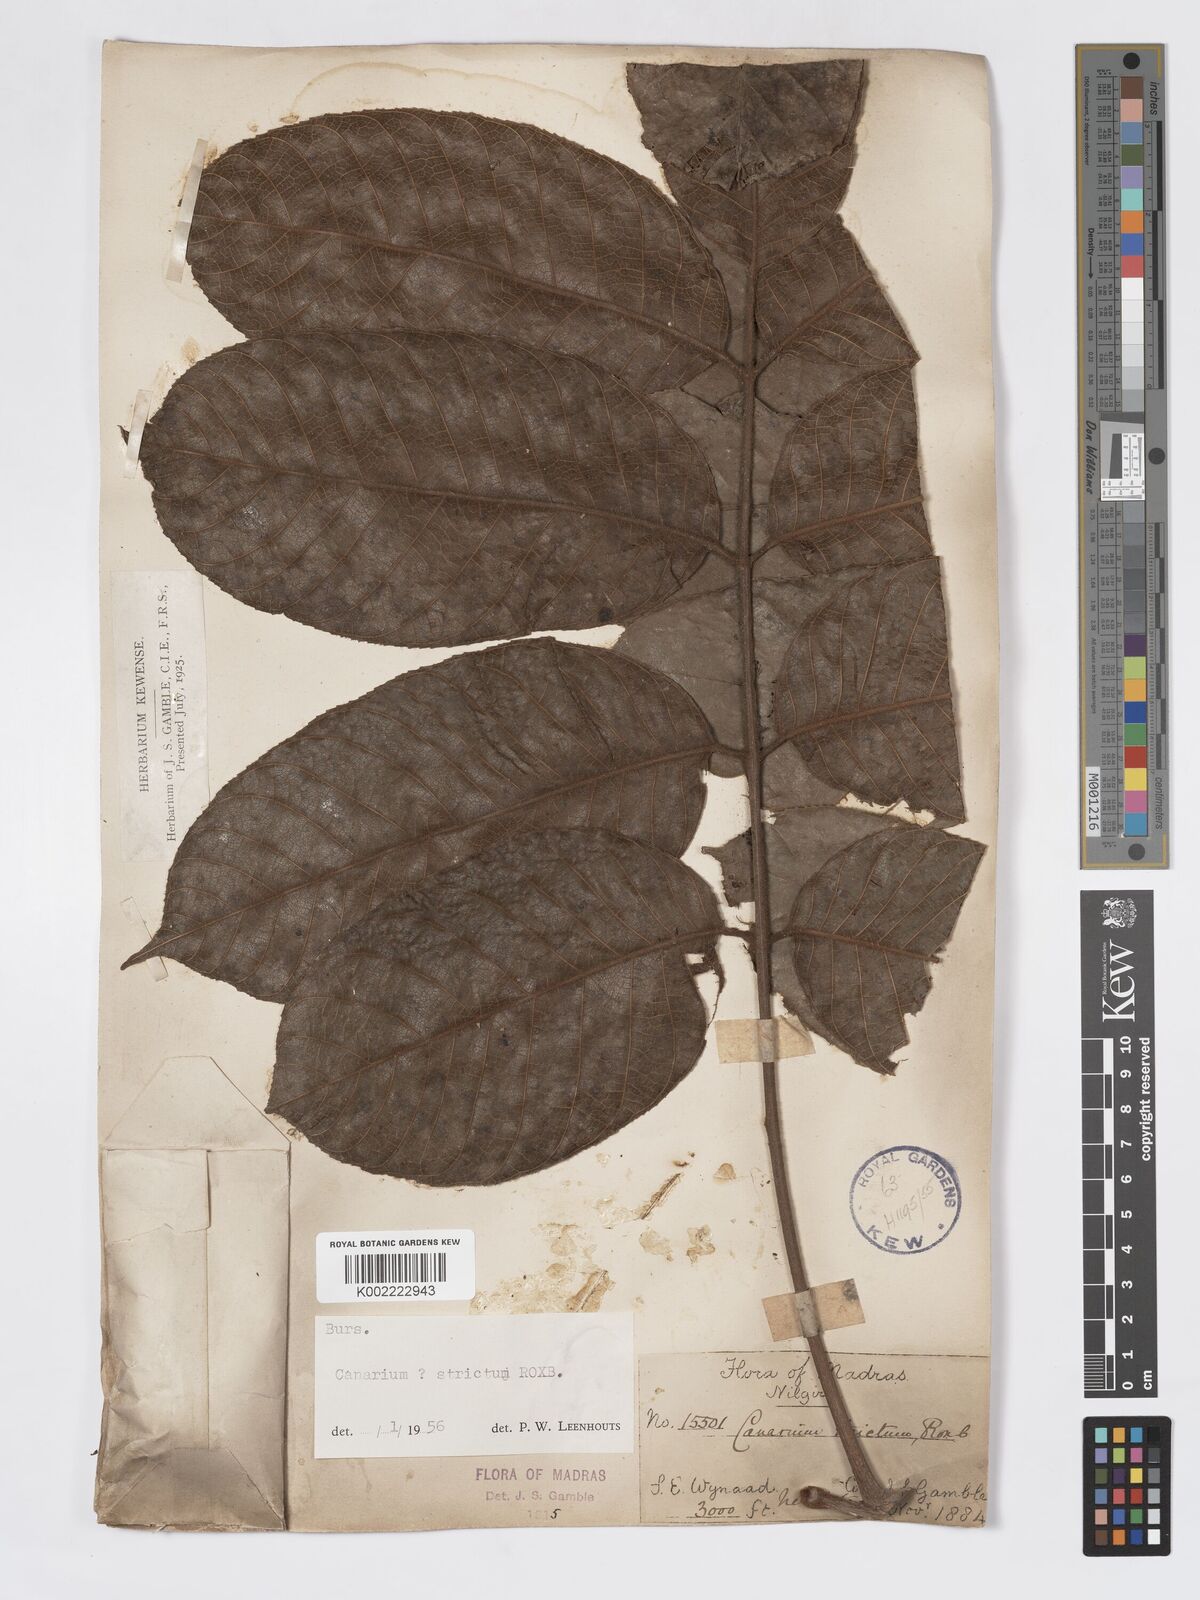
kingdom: Plantae
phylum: Tracheophyta
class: Magnoliopsida
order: Sapindales
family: Burseraceae
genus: Canarium
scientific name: Canarium strictum
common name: Indian white-mahogany
